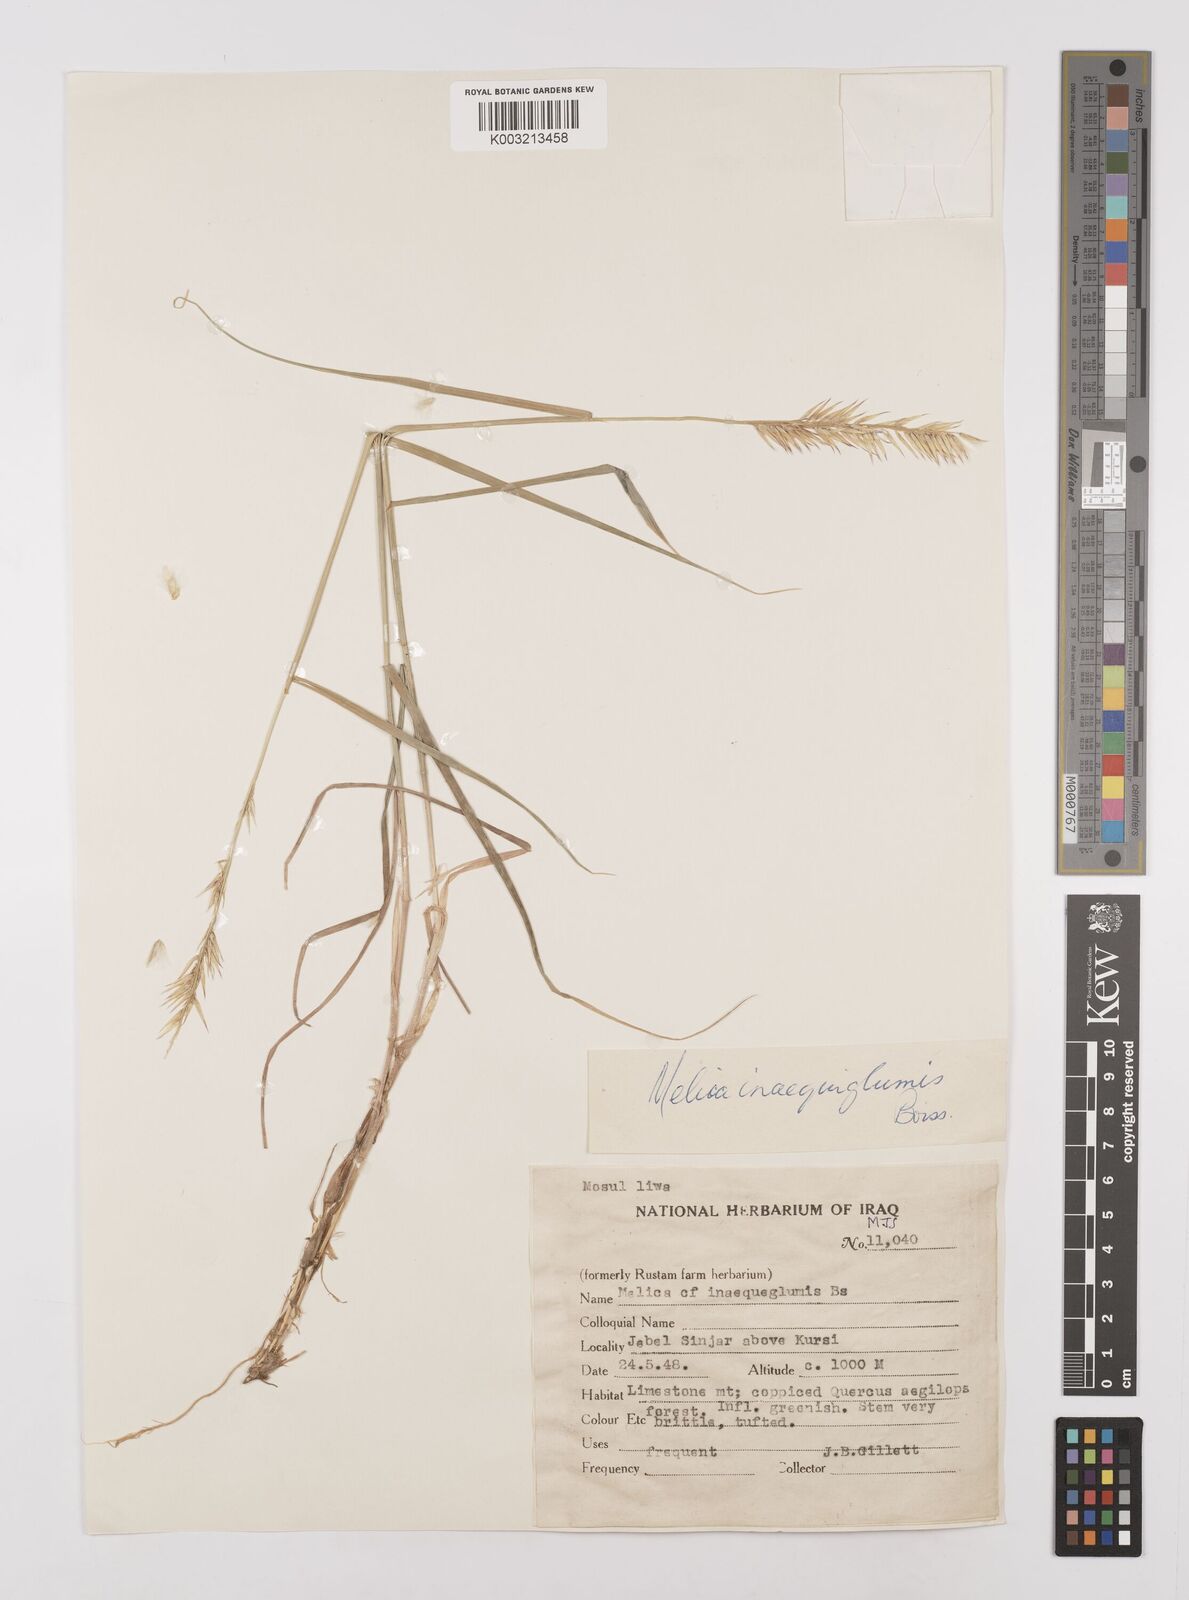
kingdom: Plantae
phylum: Tracheophyta
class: Liliopsida
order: Poales
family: Poaceae
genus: Melica
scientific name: Melica persica
